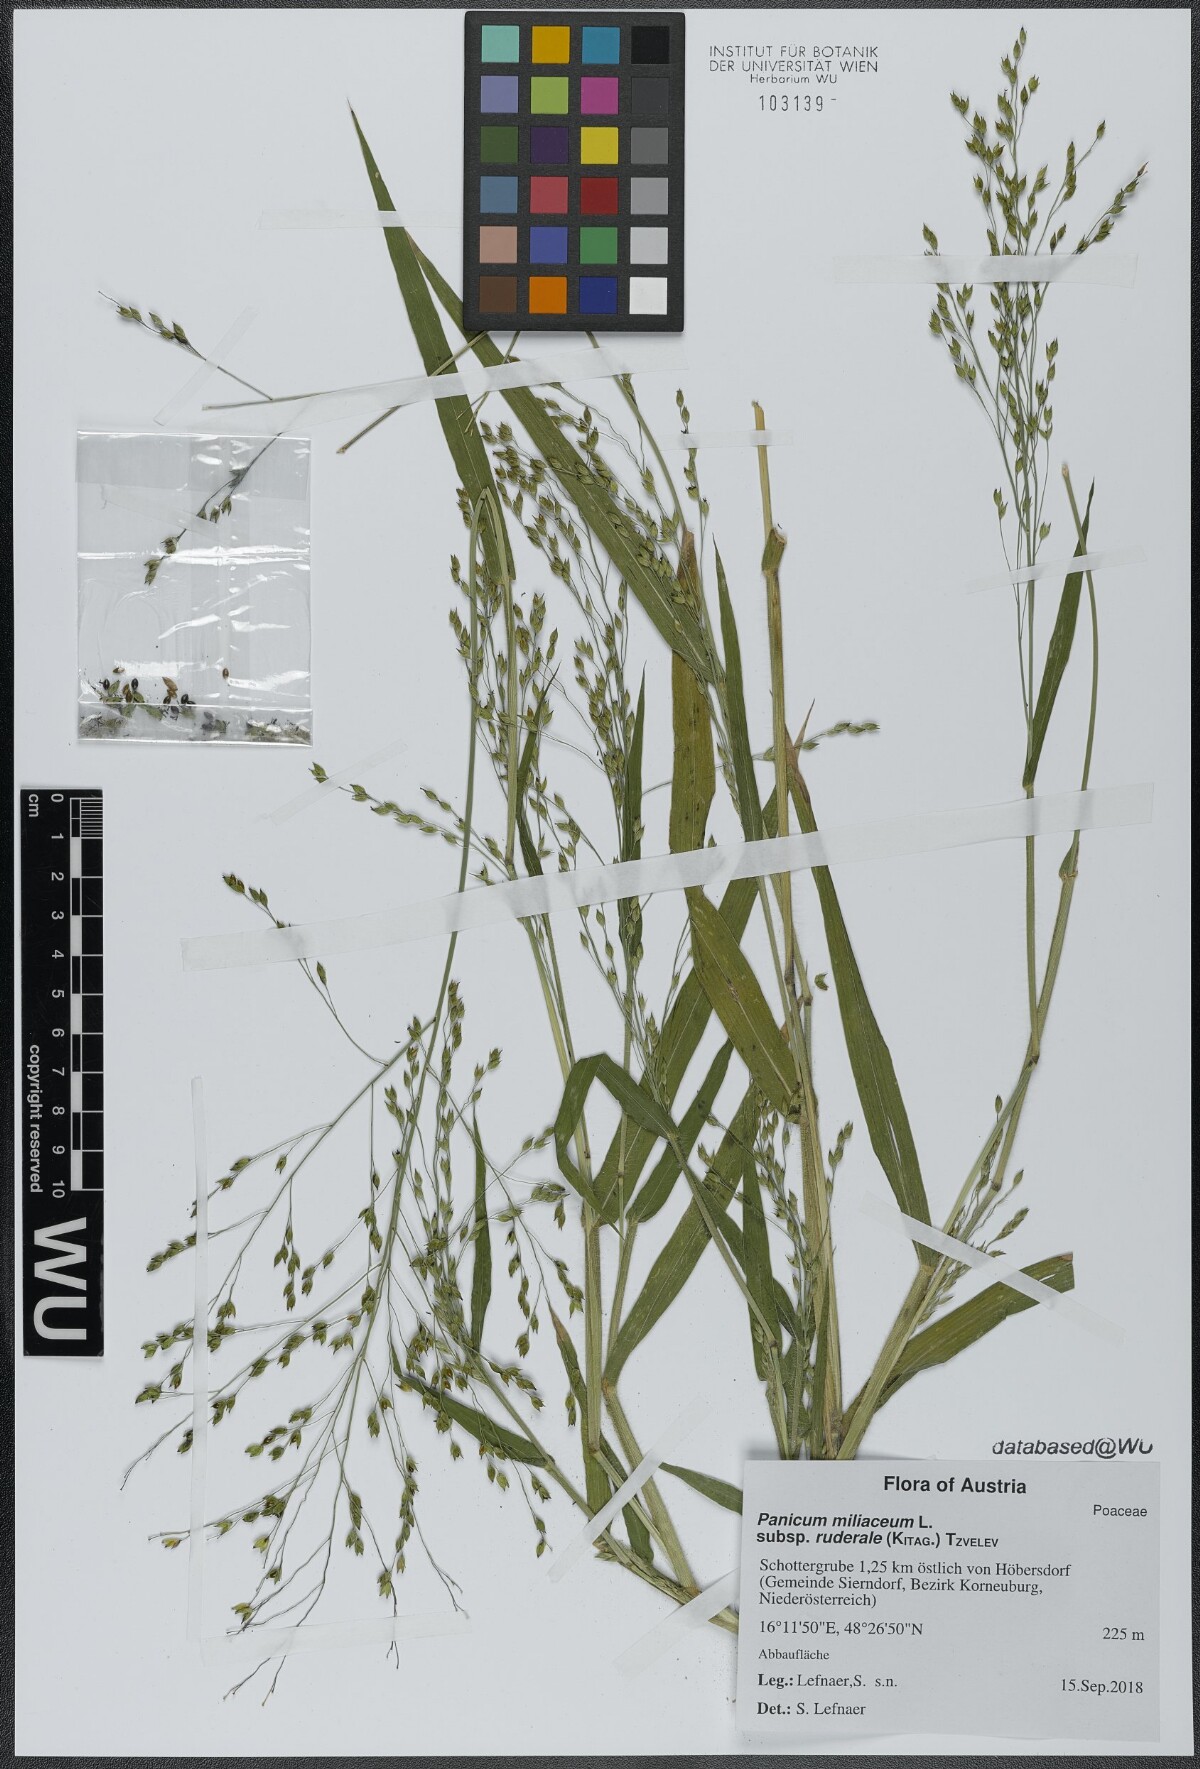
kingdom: Plantae
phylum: Tracheophyta
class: Liliopsida
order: Poales
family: Poaceae
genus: Panicum
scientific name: Panicum miliaceum
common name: Common millet
